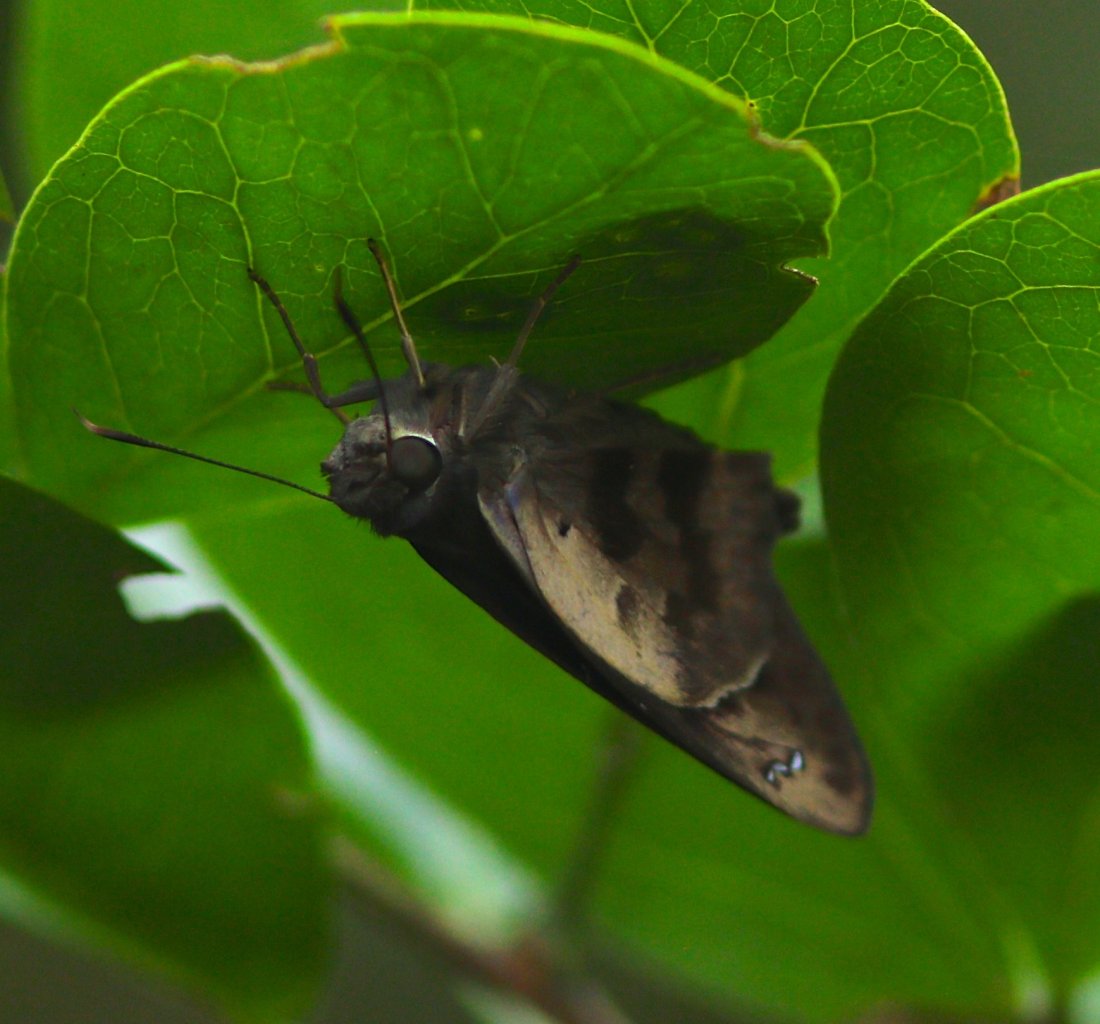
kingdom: Animalia
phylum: Arthropoda
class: Insecta
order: Lepidoptera
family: Hesperiidae
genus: Polygonus
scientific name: Polygonus leo
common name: Hammock Skipper
